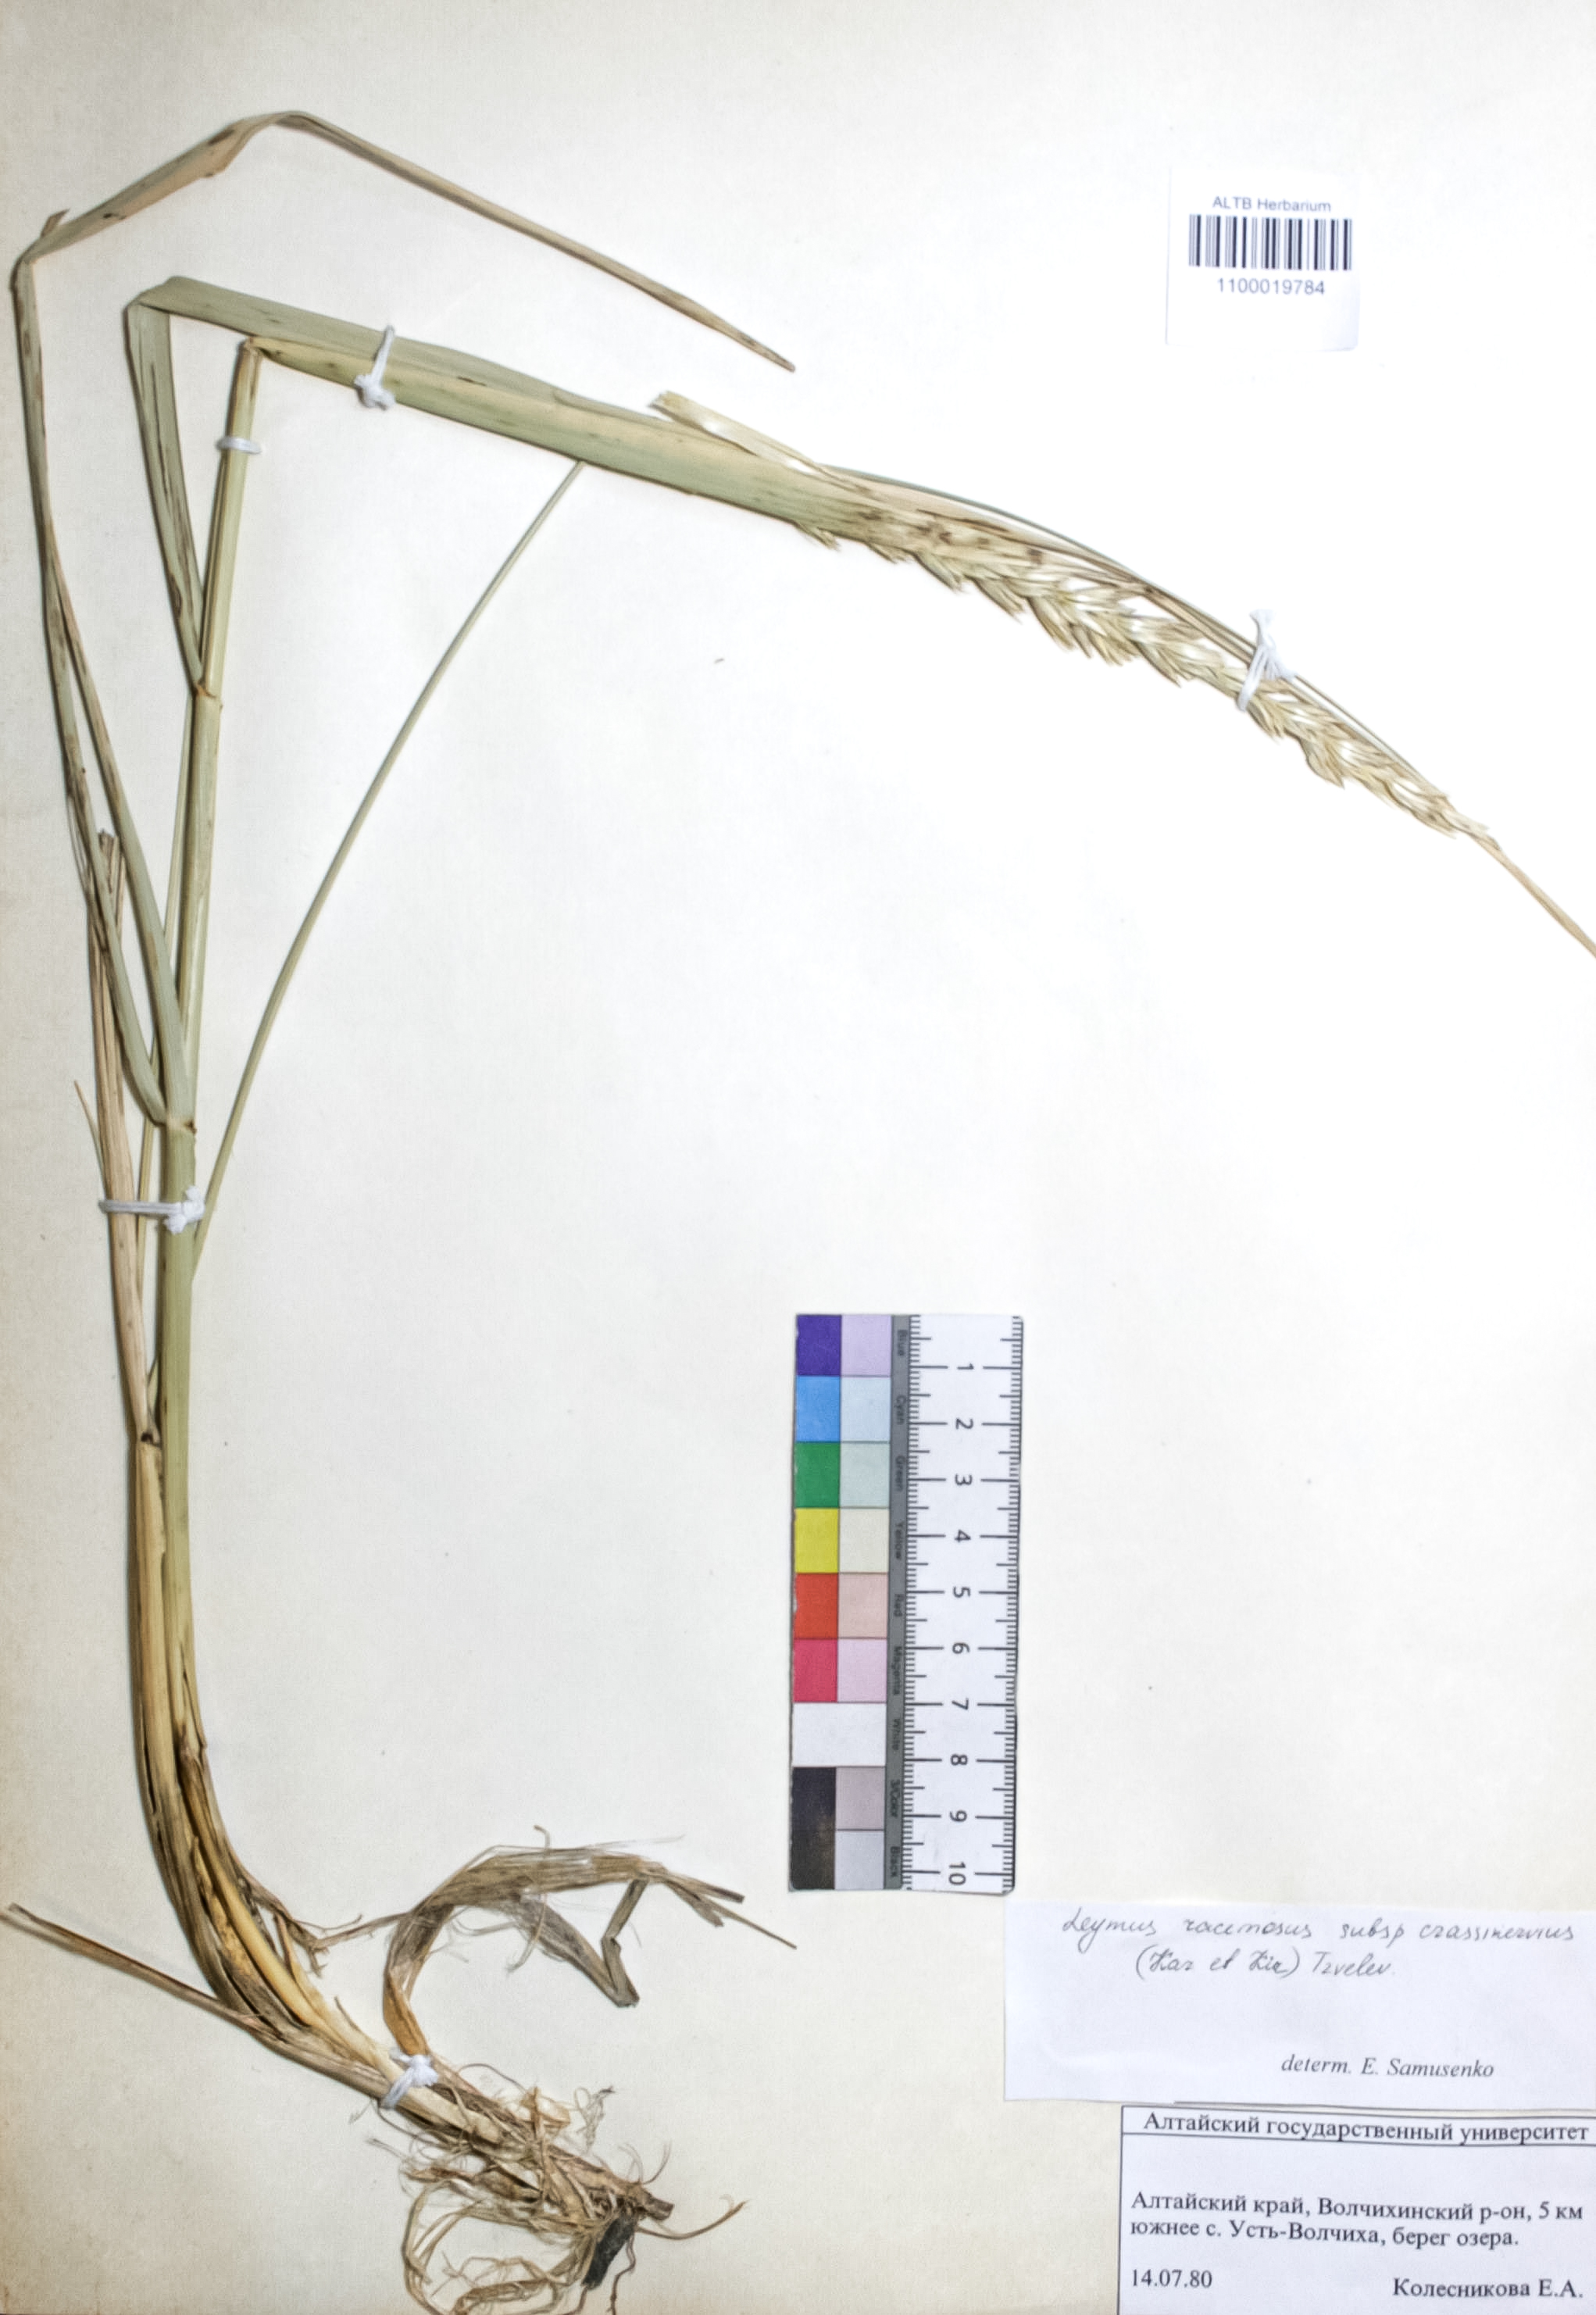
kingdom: Plantae
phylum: Tracheophyta
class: Liliopsida
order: Poales
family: Poaceae
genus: Leymus
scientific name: Leymus racemosus
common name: Mammoth wildrye
